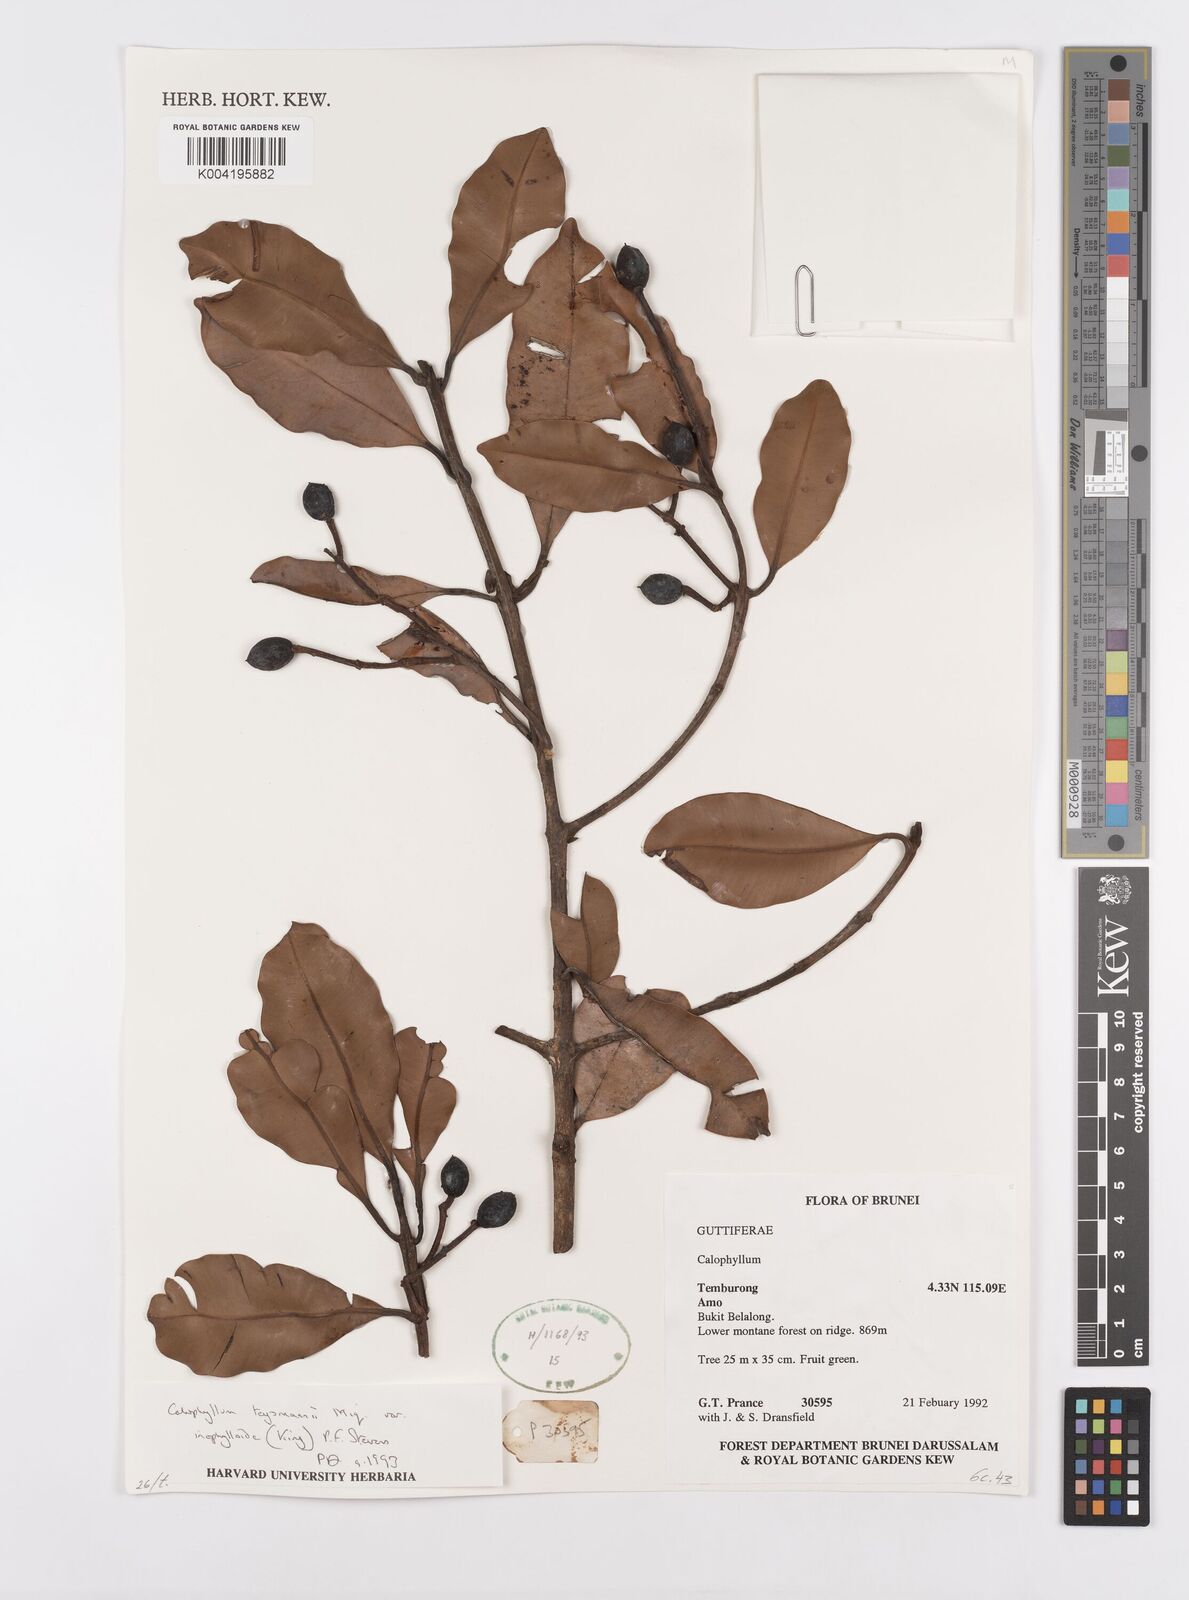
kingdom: Plantae
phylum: Tracheophyta
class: Magnoliopsida
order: Malpighiales
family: Calophyllaceae
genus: Calophyllum
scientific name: Calophyllum teysmannii
